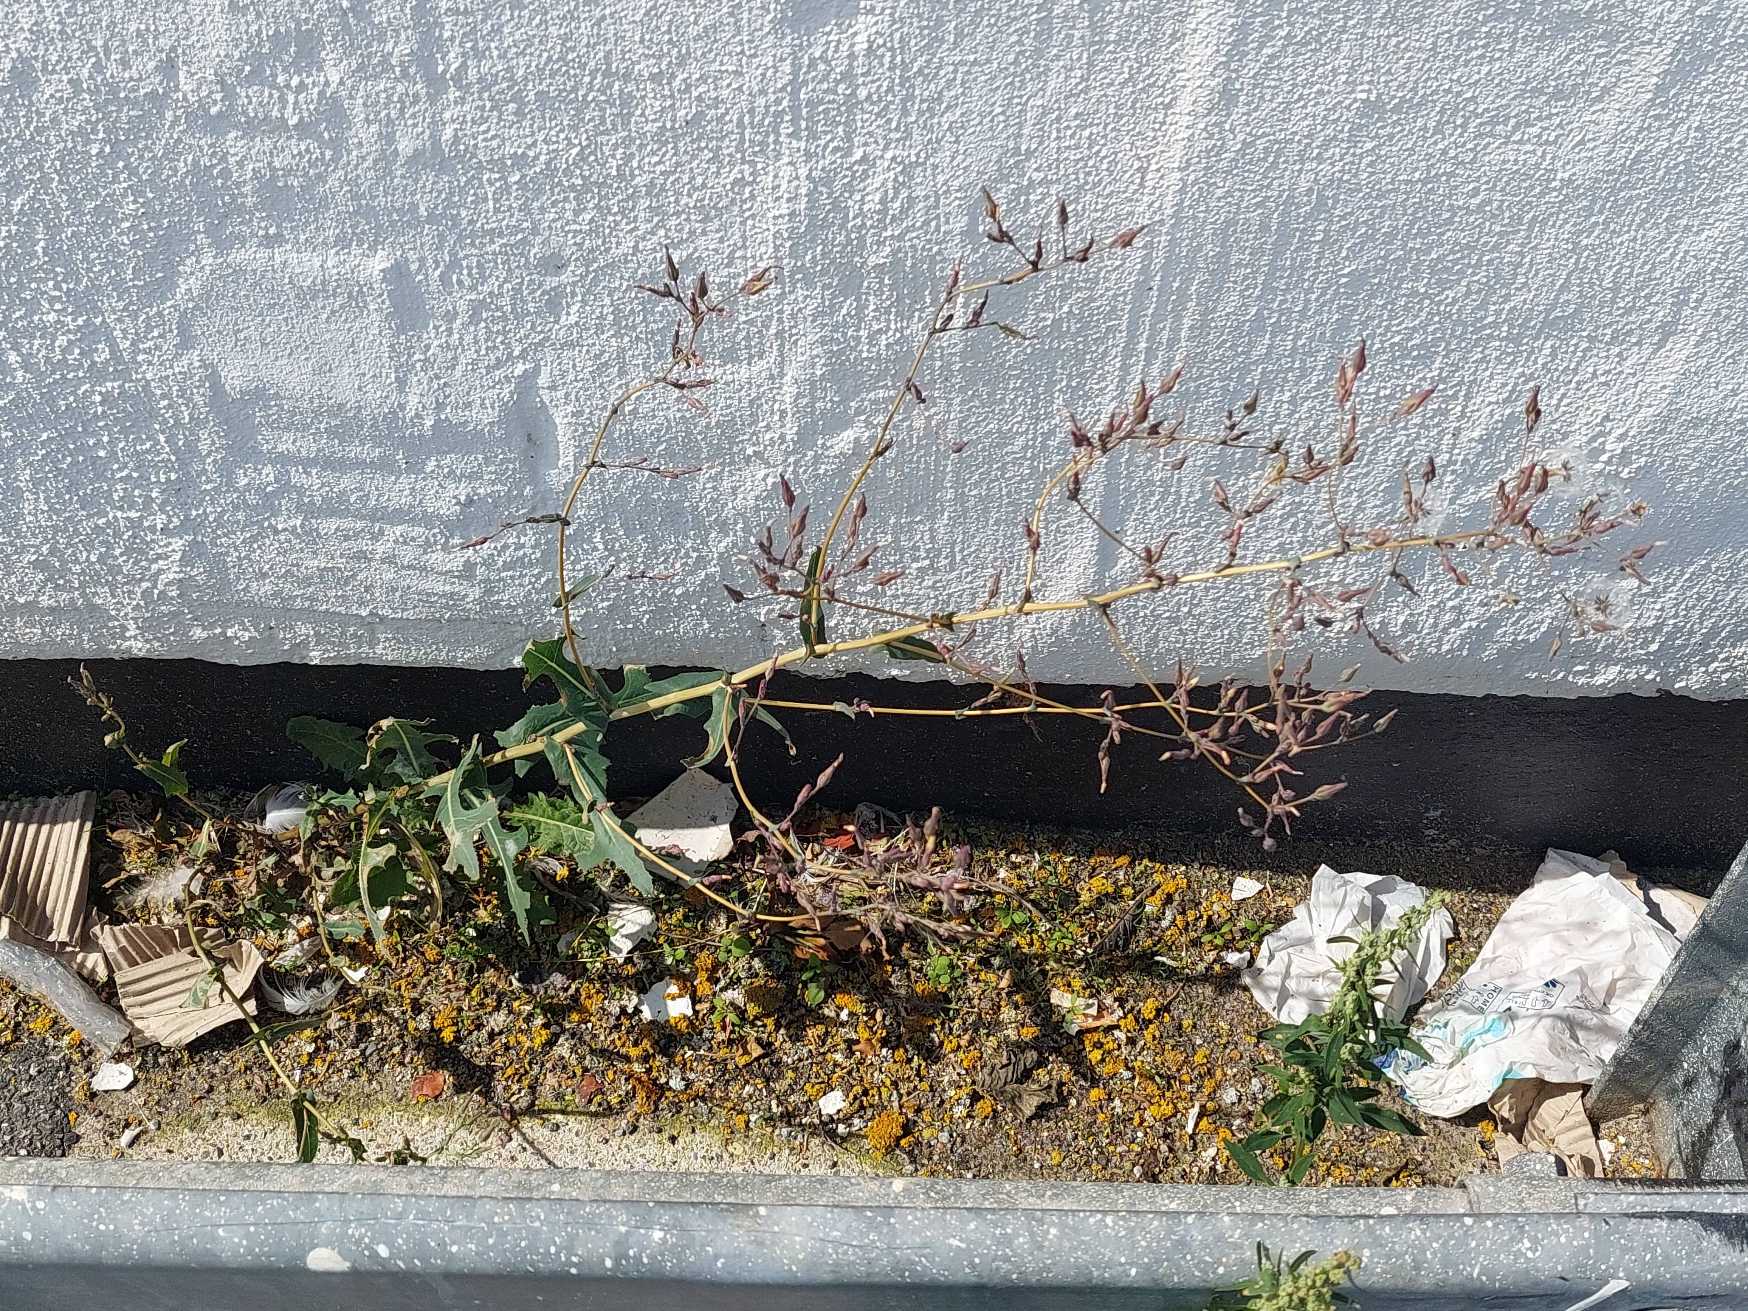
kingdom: Plantae
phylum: Tracheophyta
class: Magnoliopsida
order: Asterales
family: Asteraceae
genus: Lactuca
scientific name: Lactuca serriola
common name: Tornet salat
